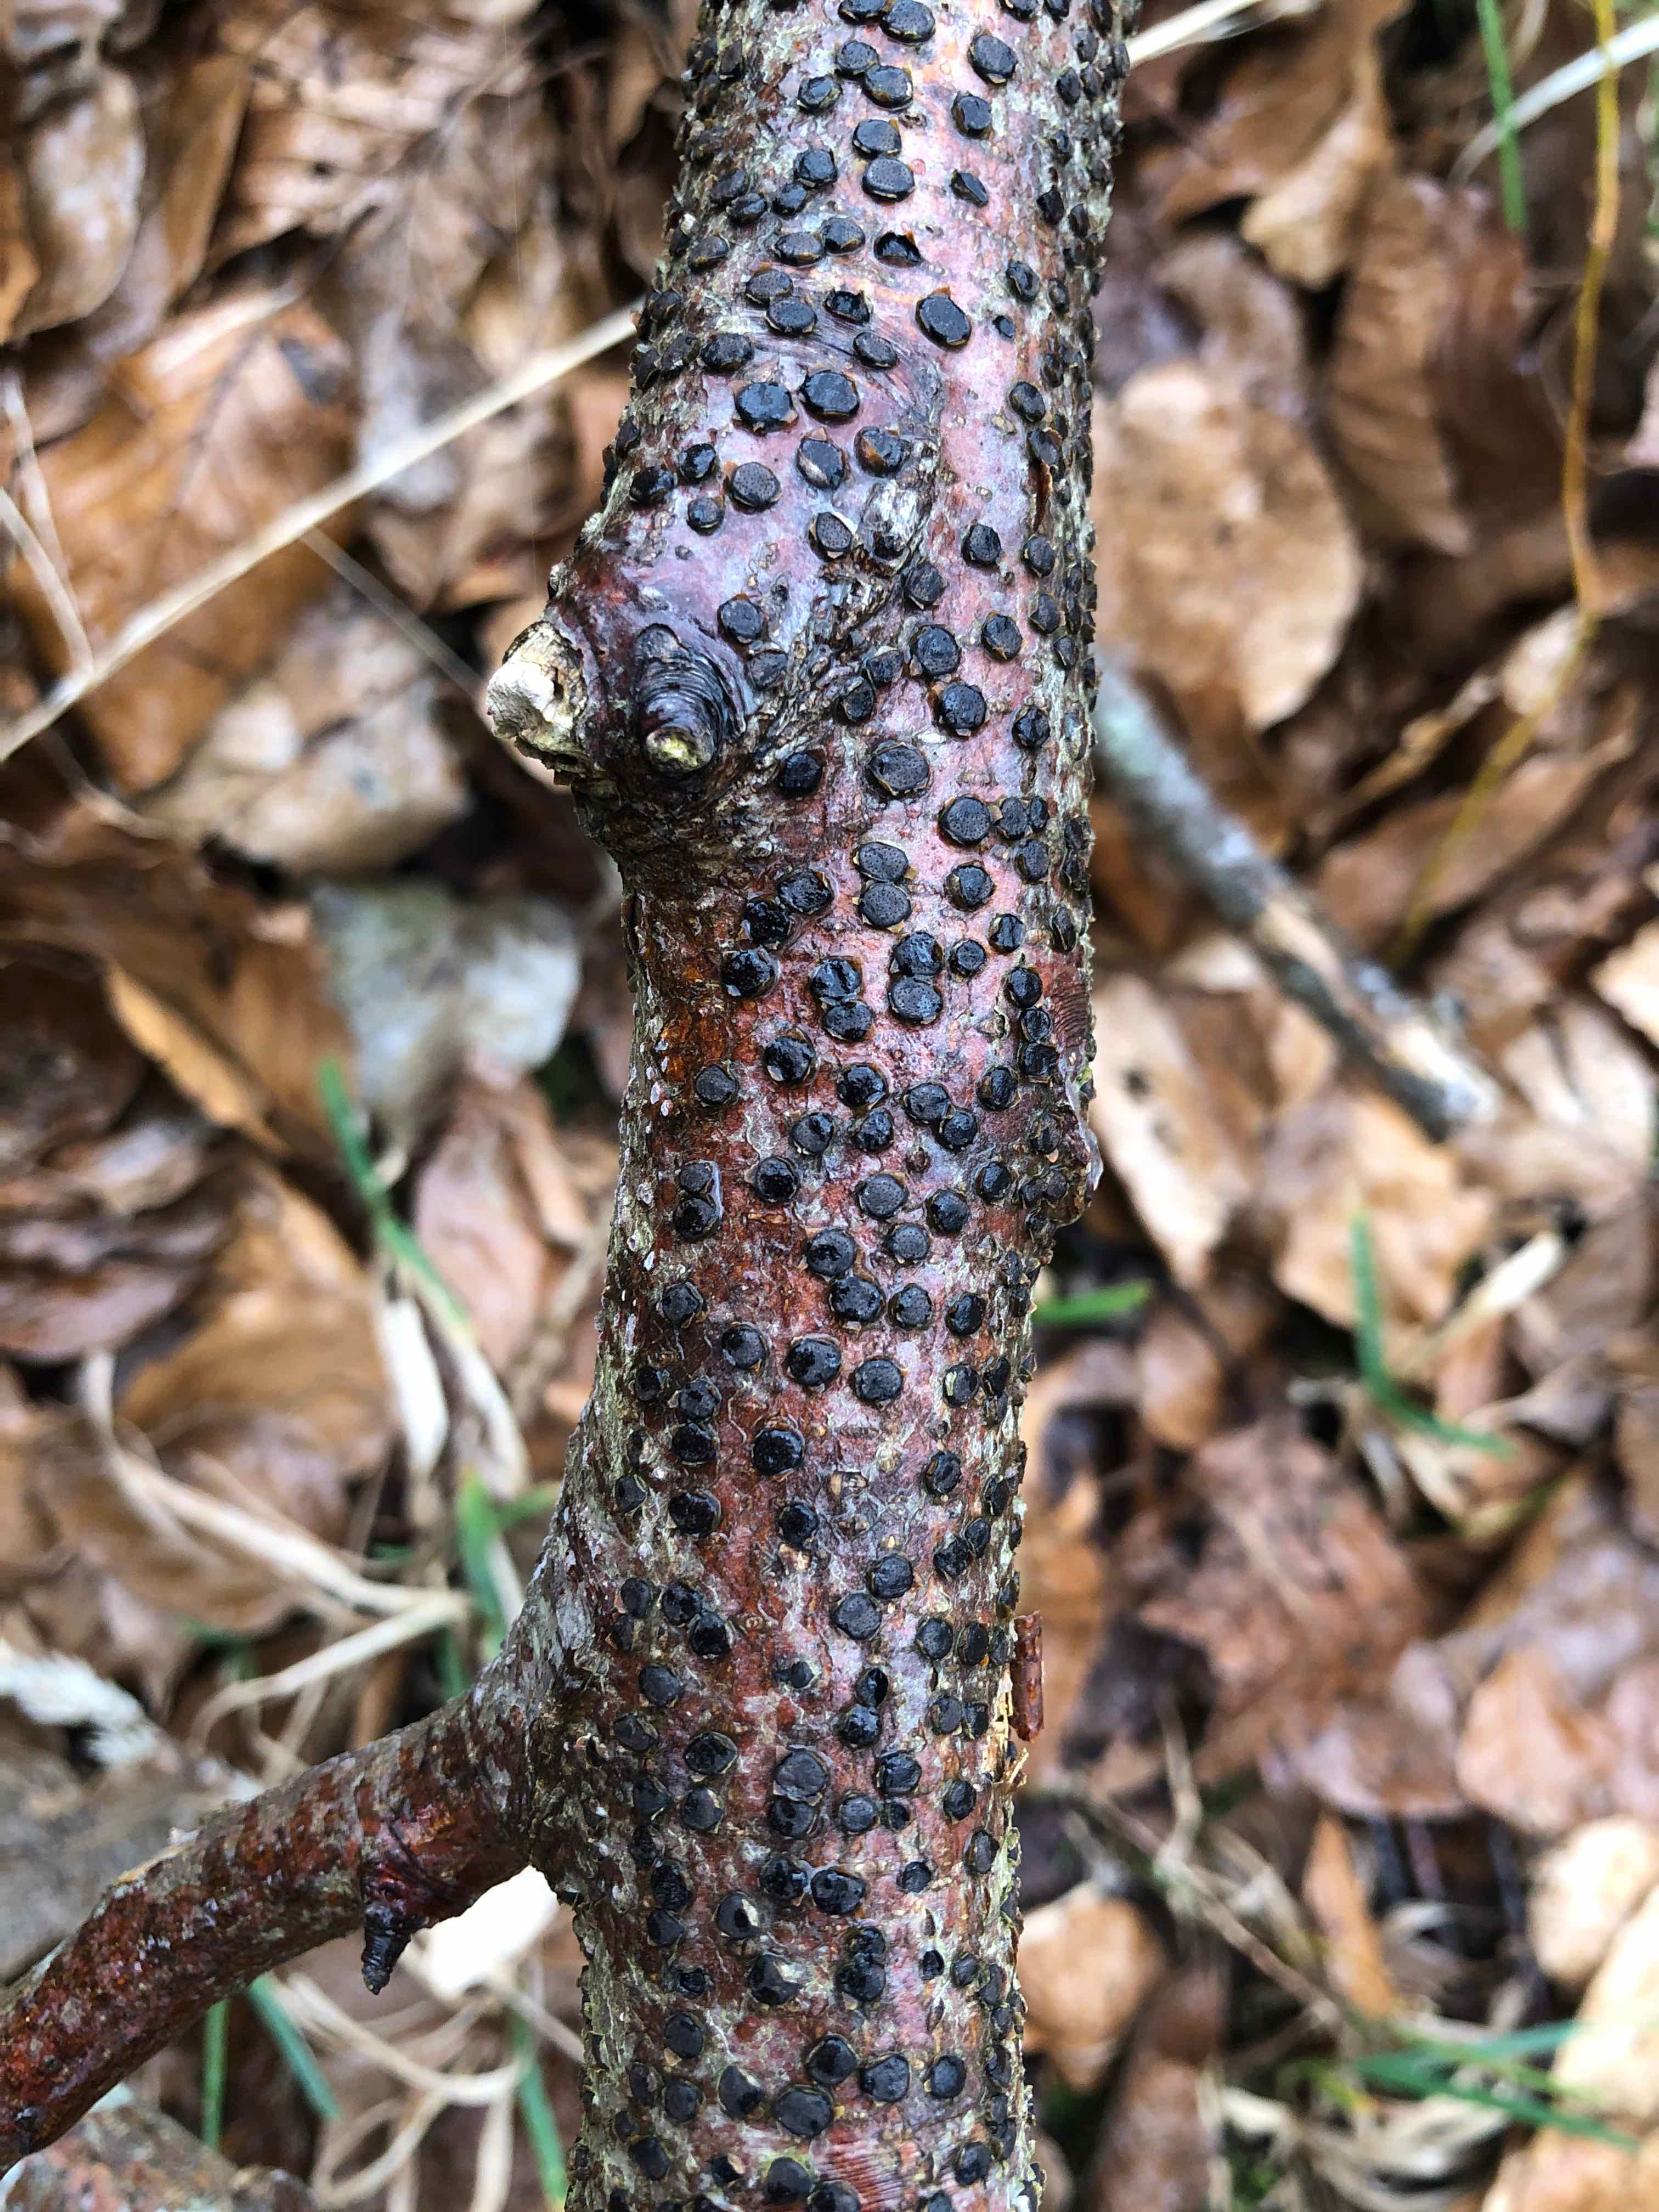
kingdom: Fungi
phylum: Ascomycota
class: Sordariomycetes
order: Xylariales
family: Diatrypaceae
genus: Diatrype
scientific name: Diatrype disciformis
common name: kant-kulskorpe
